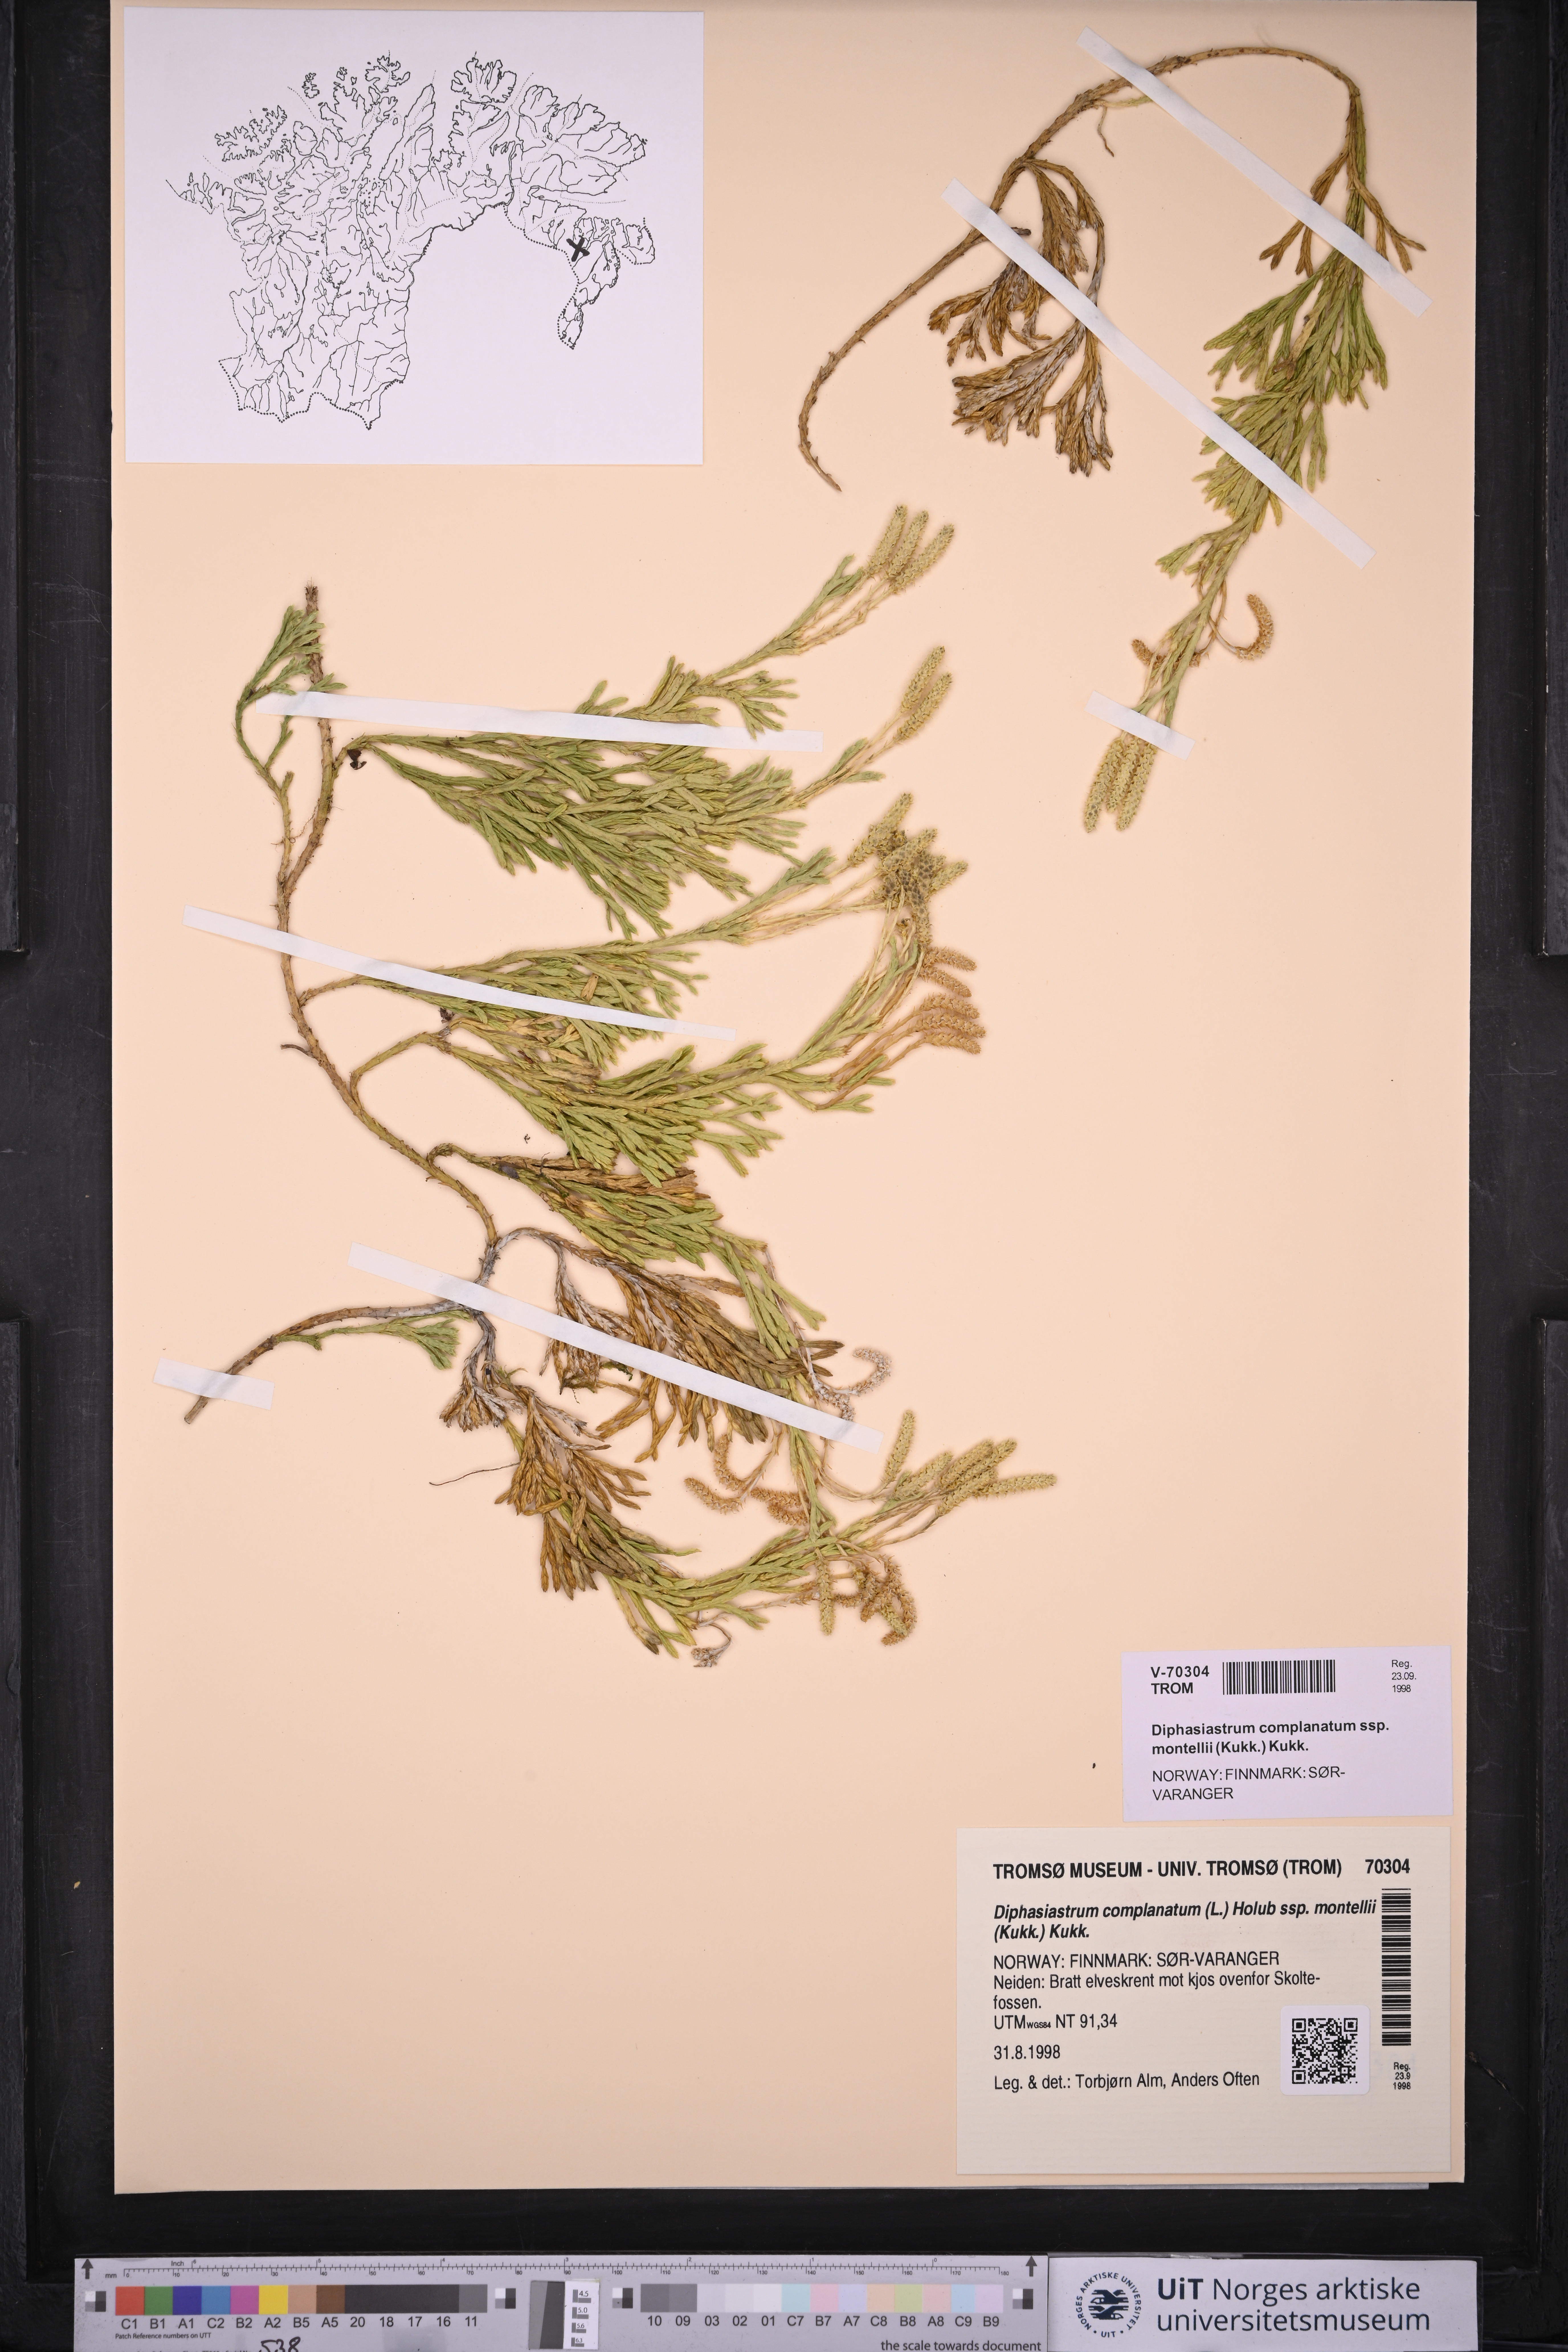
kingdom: Plantae
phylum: Tracheophyta
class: Lycopodiopsida
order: Lycopodiales
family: Lycopodiaceae
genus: Diphasiastrum
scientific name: Diphasiastrum complanatum
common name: Northern running-pine
